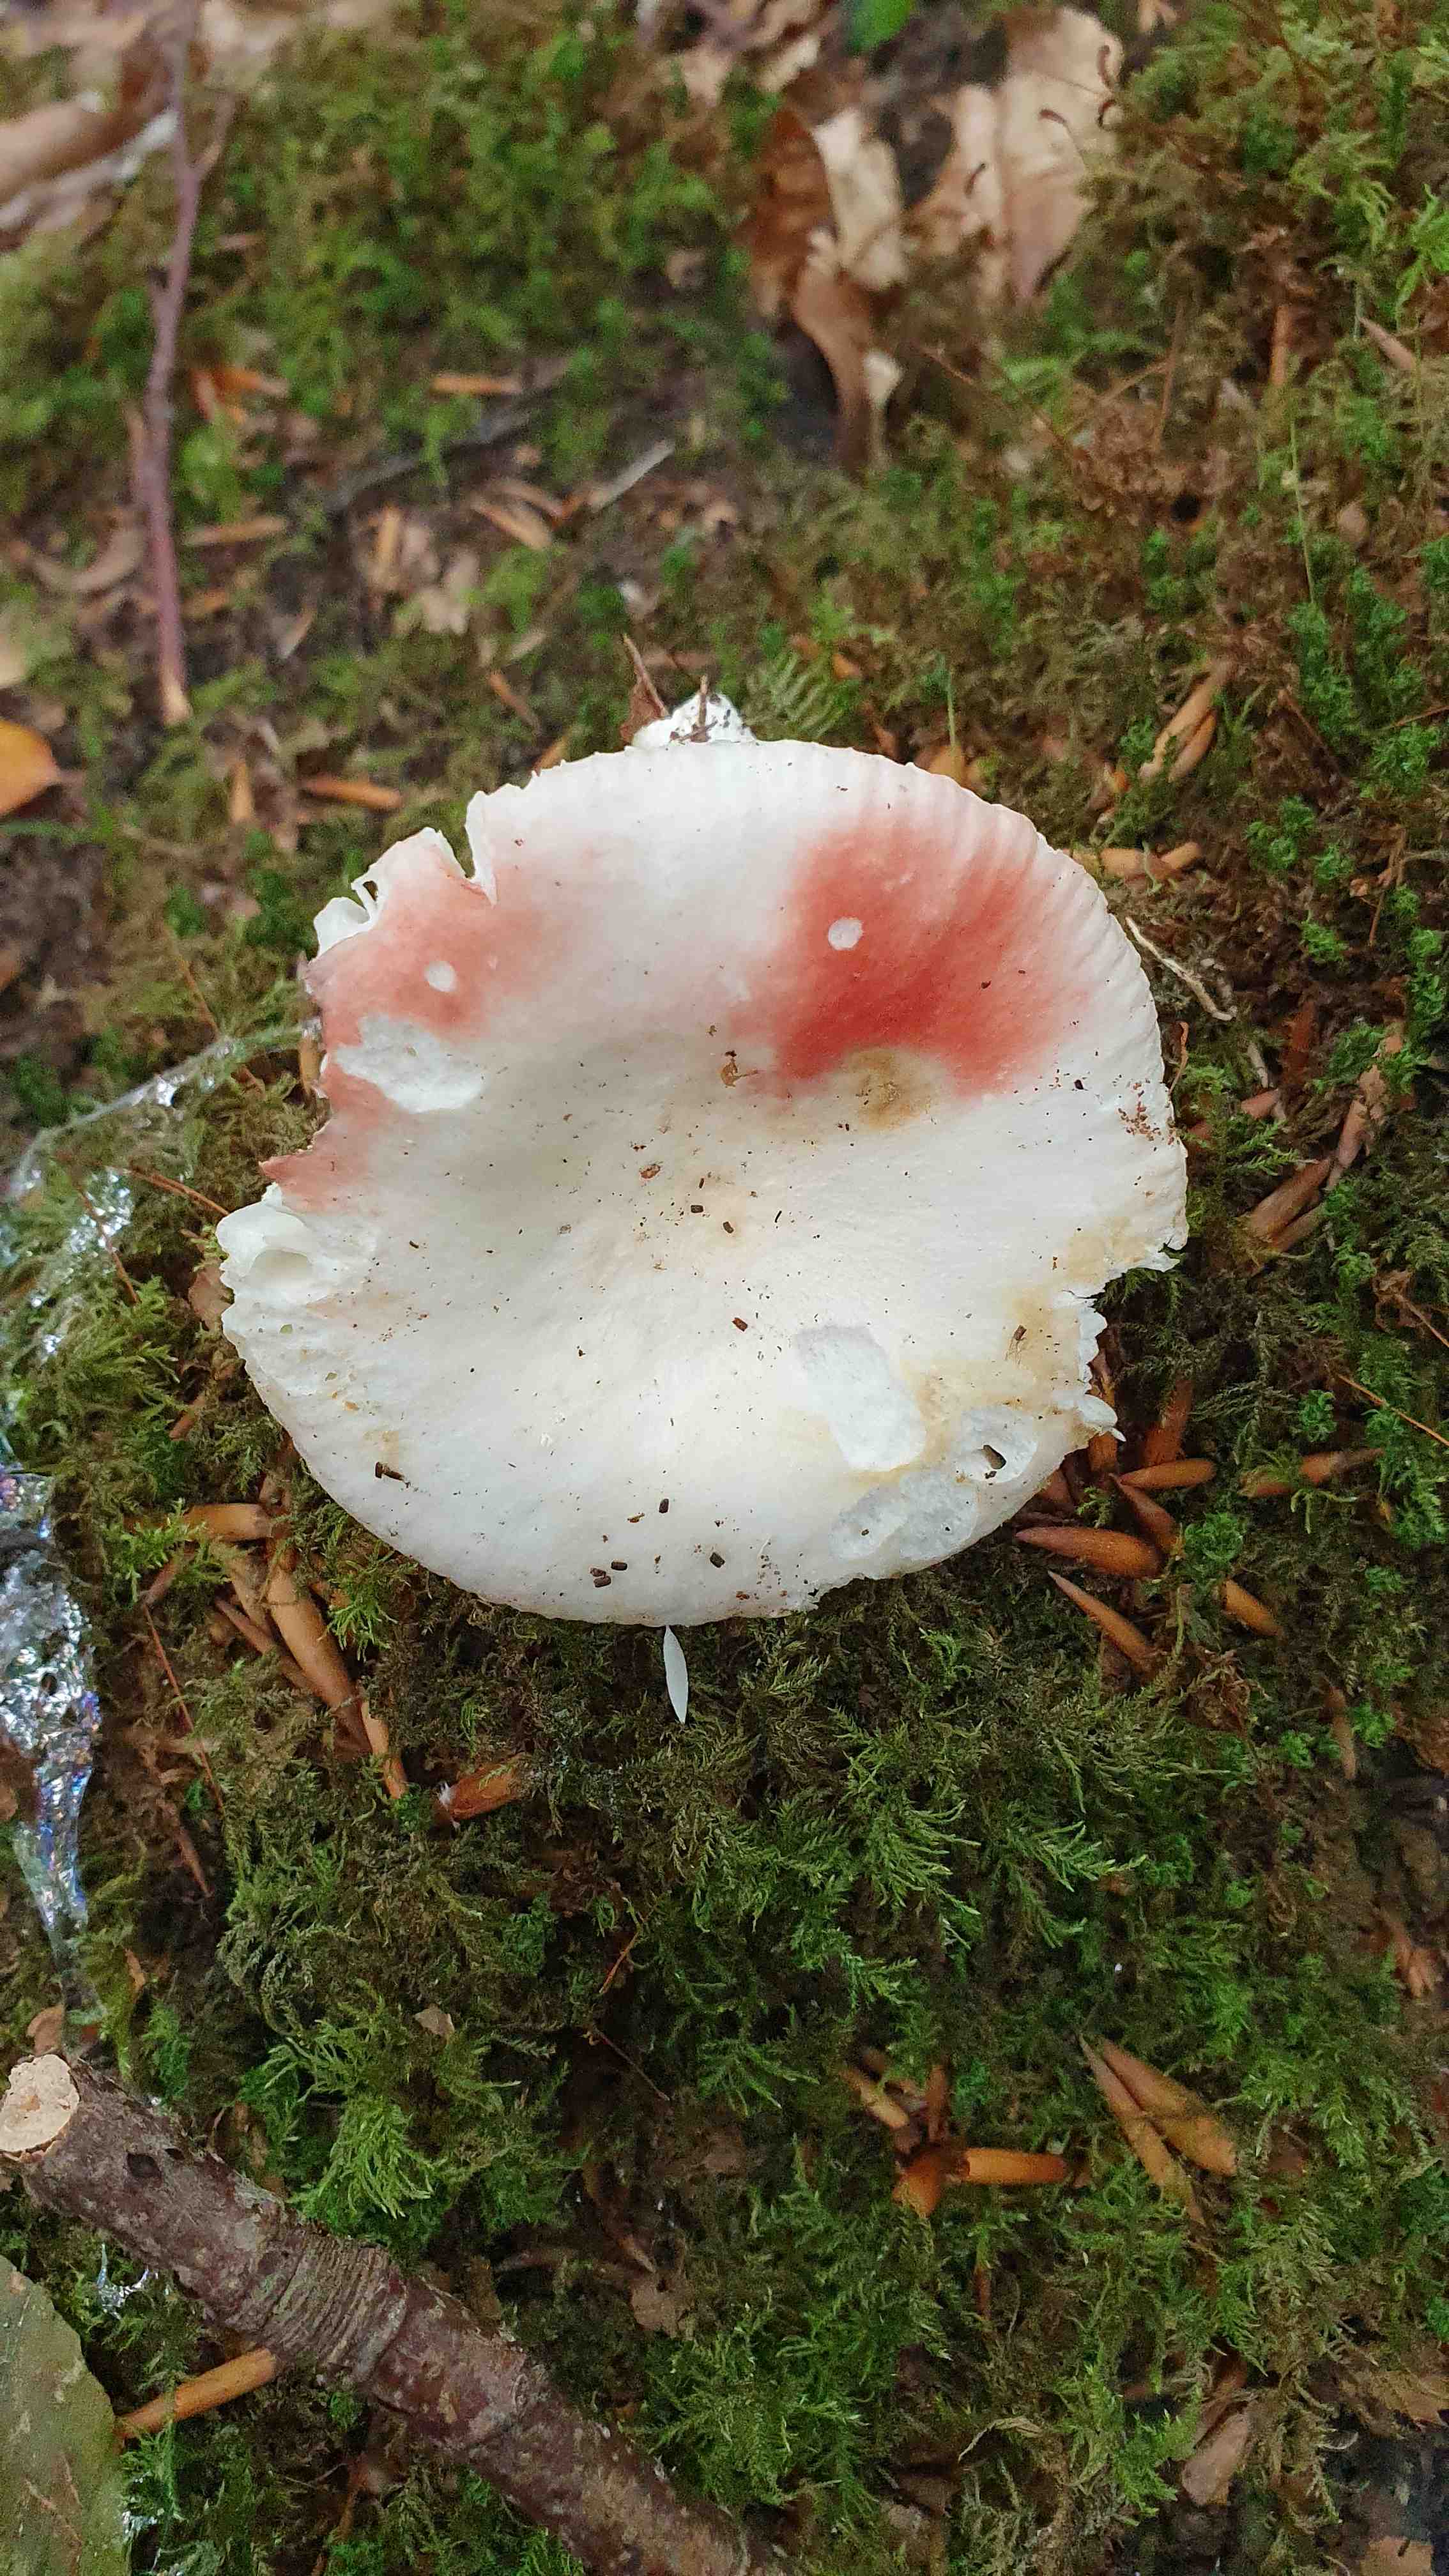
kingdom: Fungi
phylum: Basidiomycota
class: Agaricomycetes
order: Russulales
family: Russulaceae
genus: Russula
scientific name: Russula luteotacta
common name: gulplettet gift-skørhat
